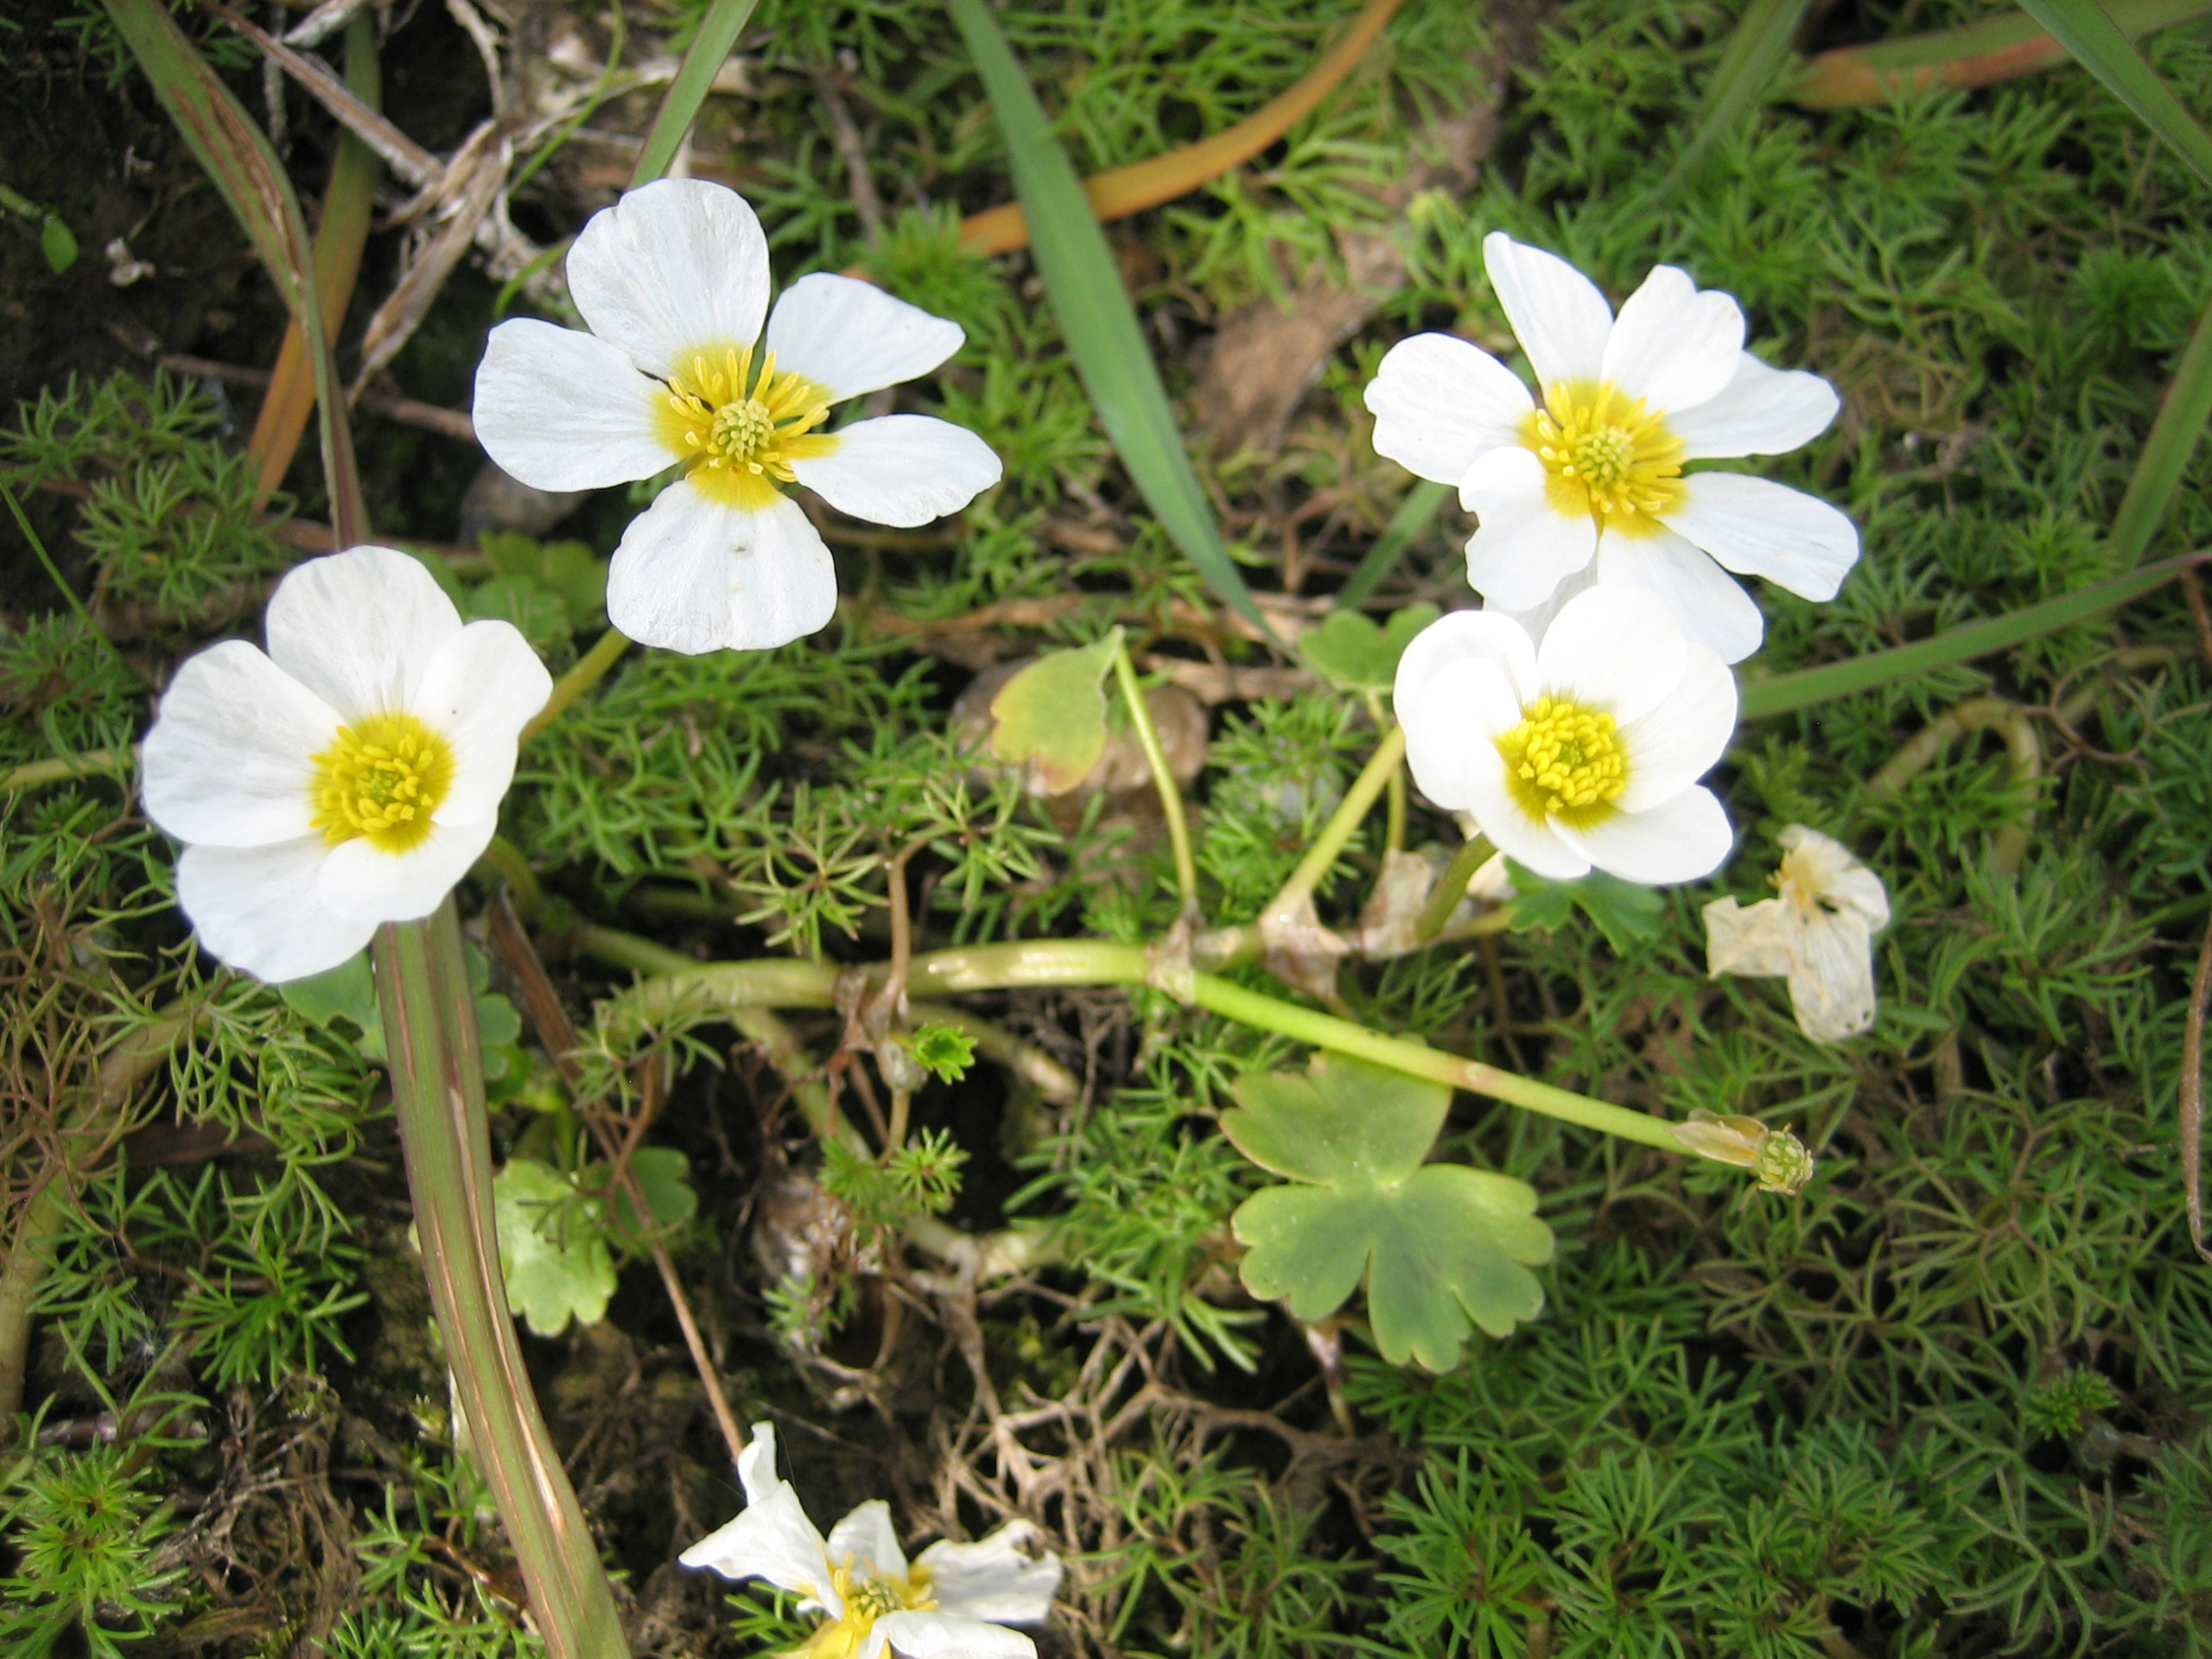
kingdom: Plantae
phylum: Tracheophyta
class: Magnoliopsida
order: Ranunculales
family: Ranunculaceae
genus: Ranunculus
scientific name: Ranunculus peltatus
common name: Storblomstret vandranunkel
